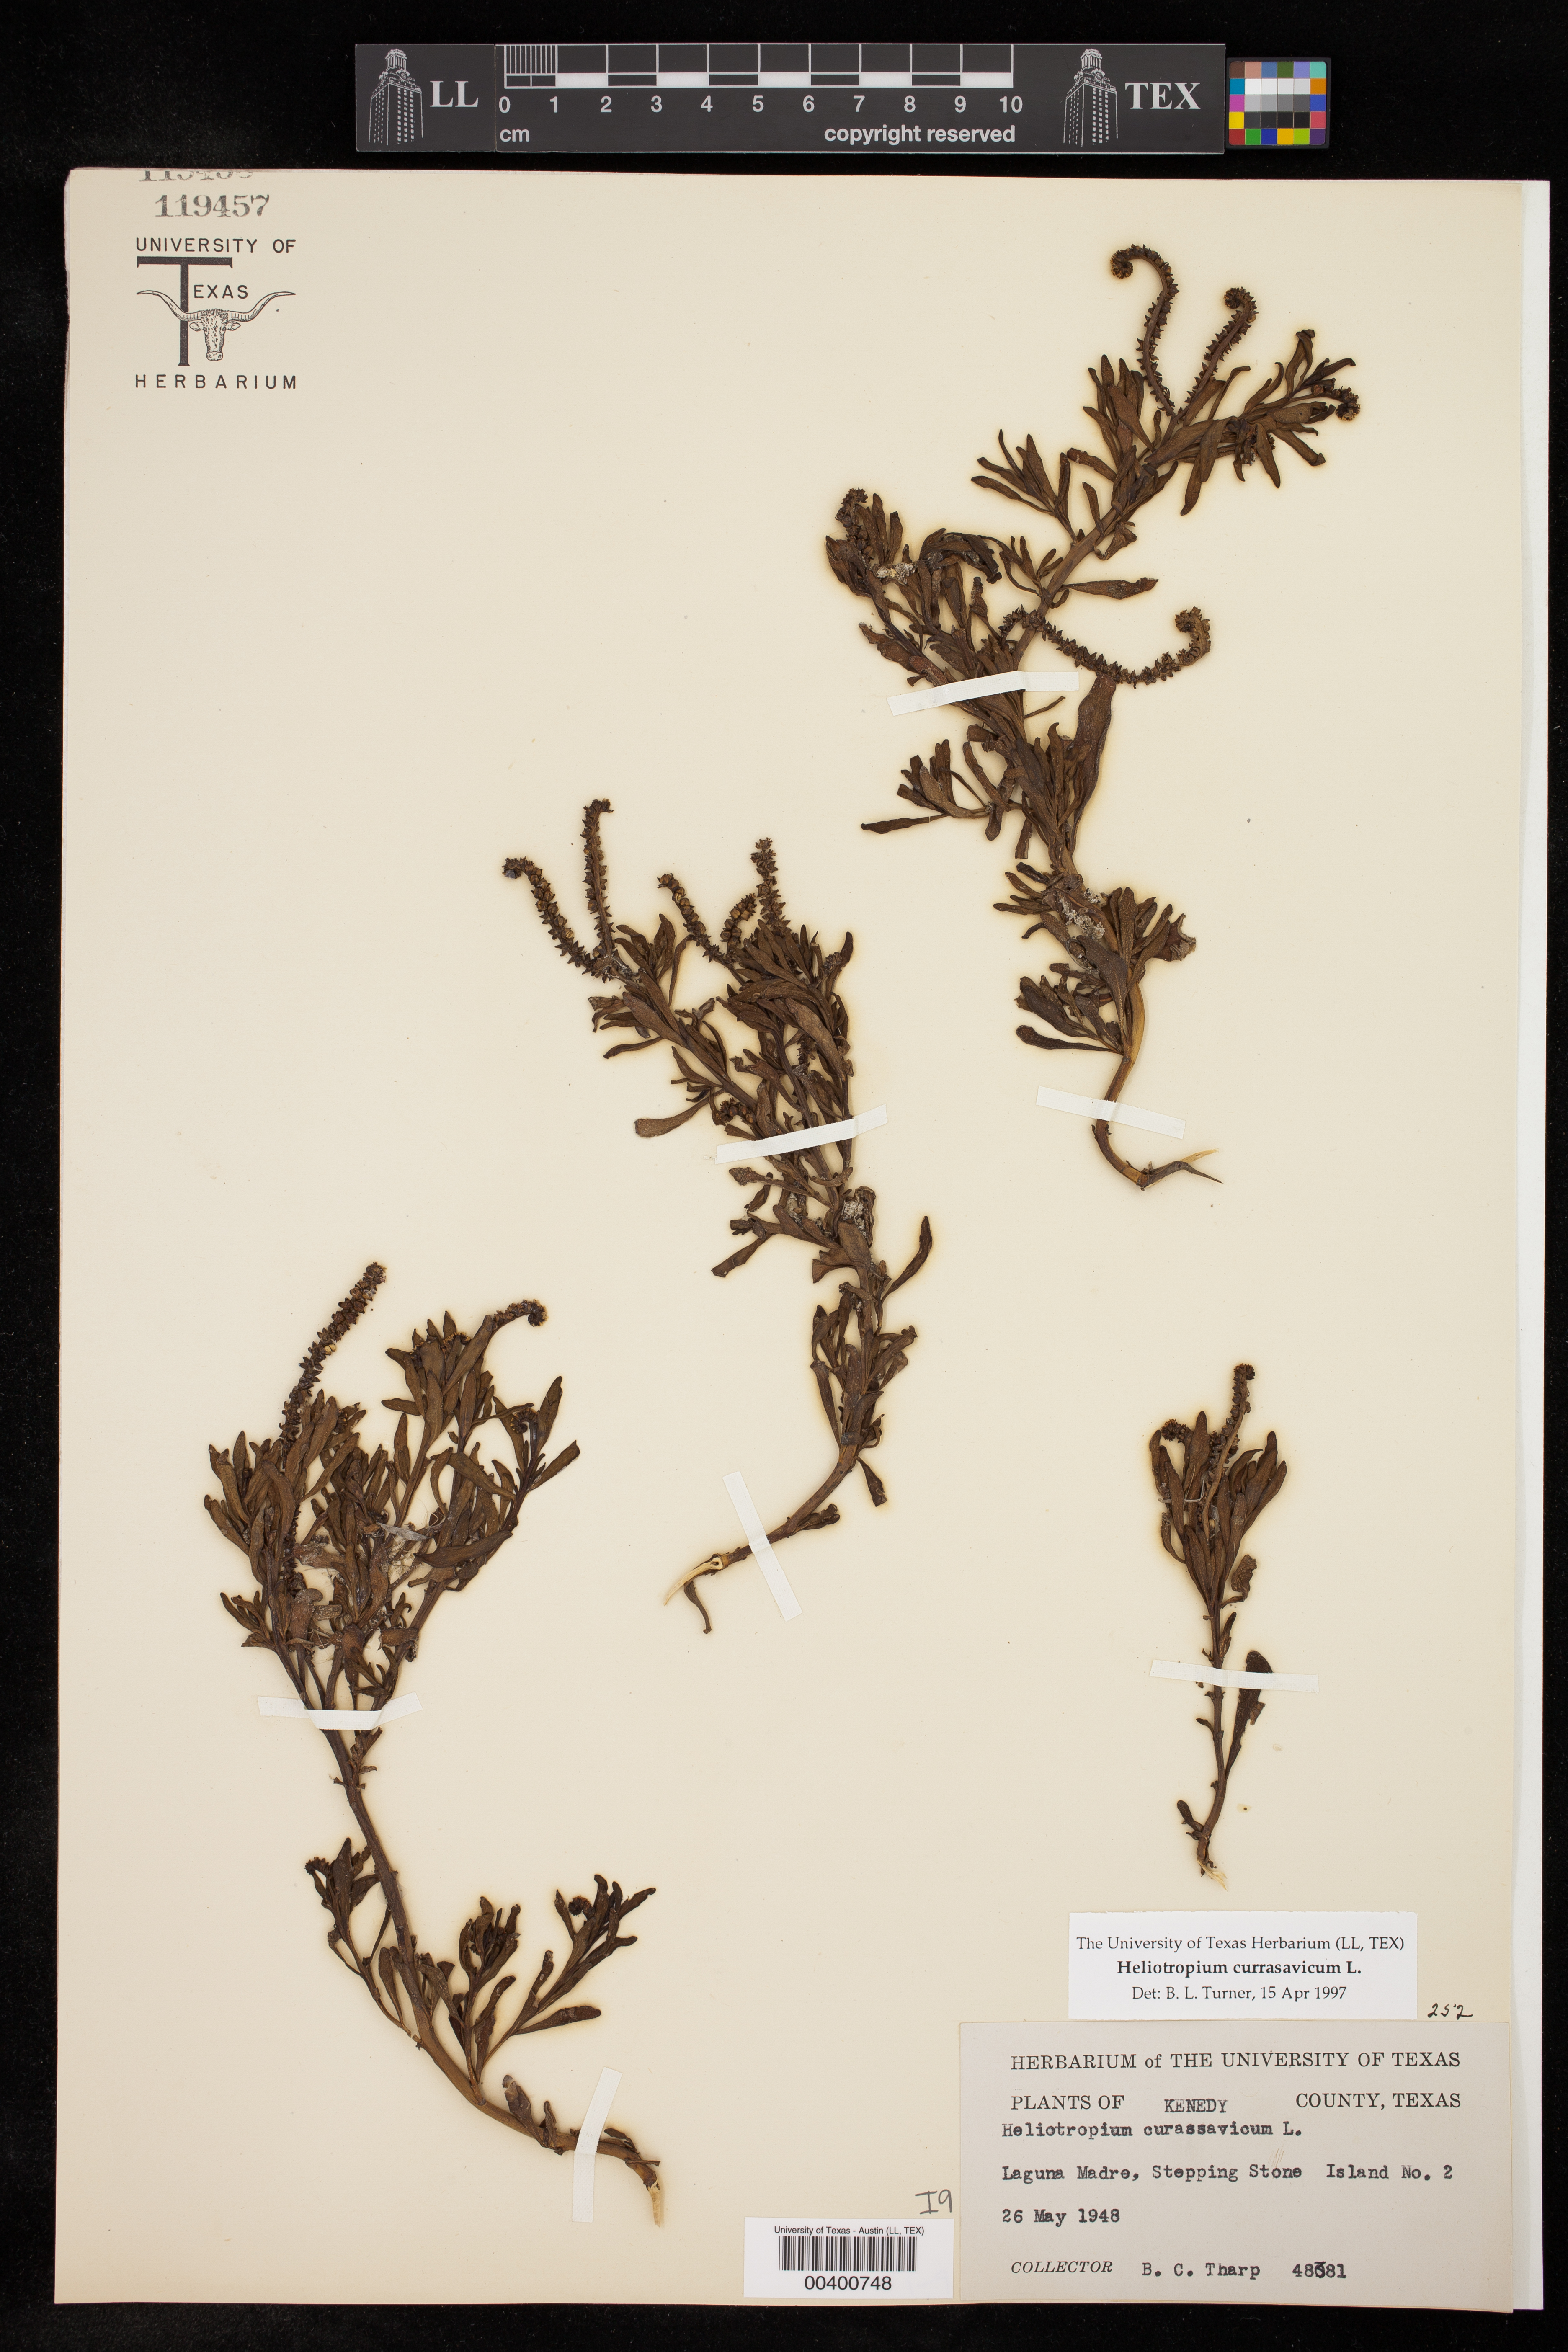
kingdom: Plantae
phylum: Tracheophyta
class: Magnoliopsida
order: Boraginales
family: Heliotropiaceae
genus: Heliotropium
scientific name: Heliotropium curassavicum
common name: Seaside heliotrope
